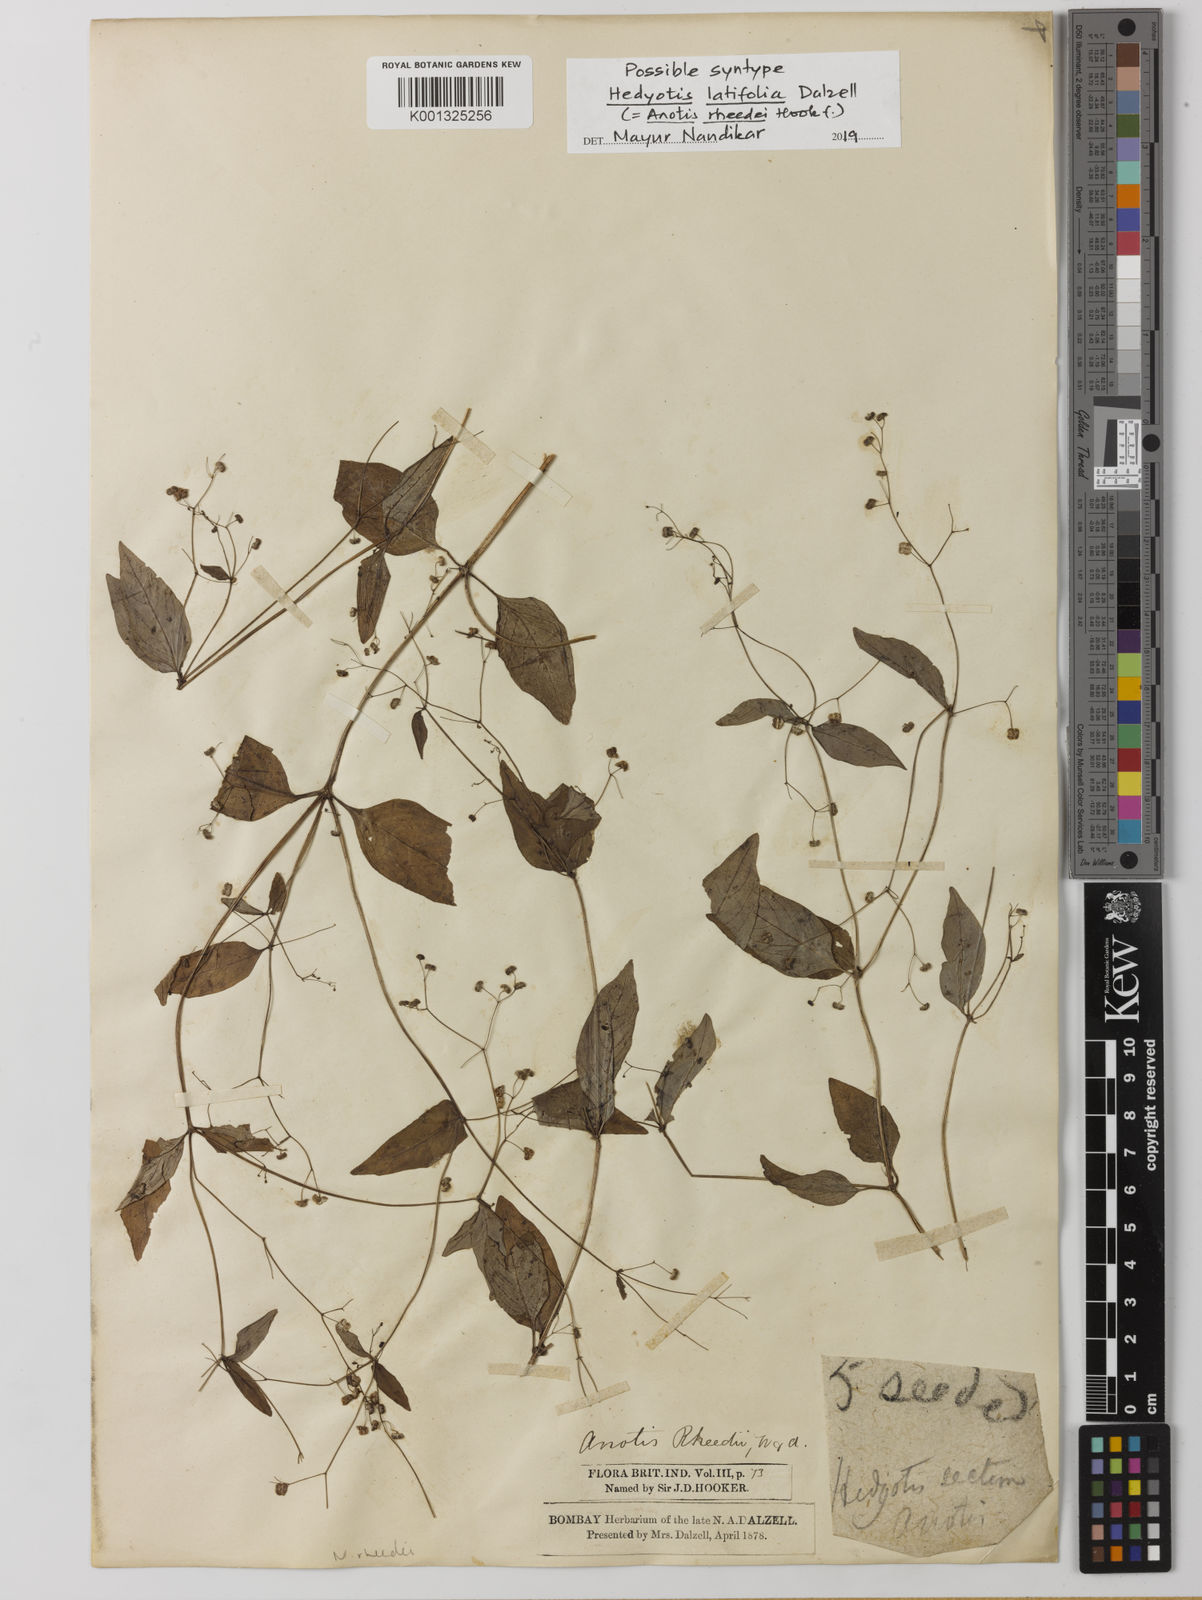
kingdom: Plantae
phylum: Tracheophyta
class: Magnoliopsida
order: Gentianales
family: Rubiaceae
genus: Neanotis
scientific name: Neanotis rheedei
